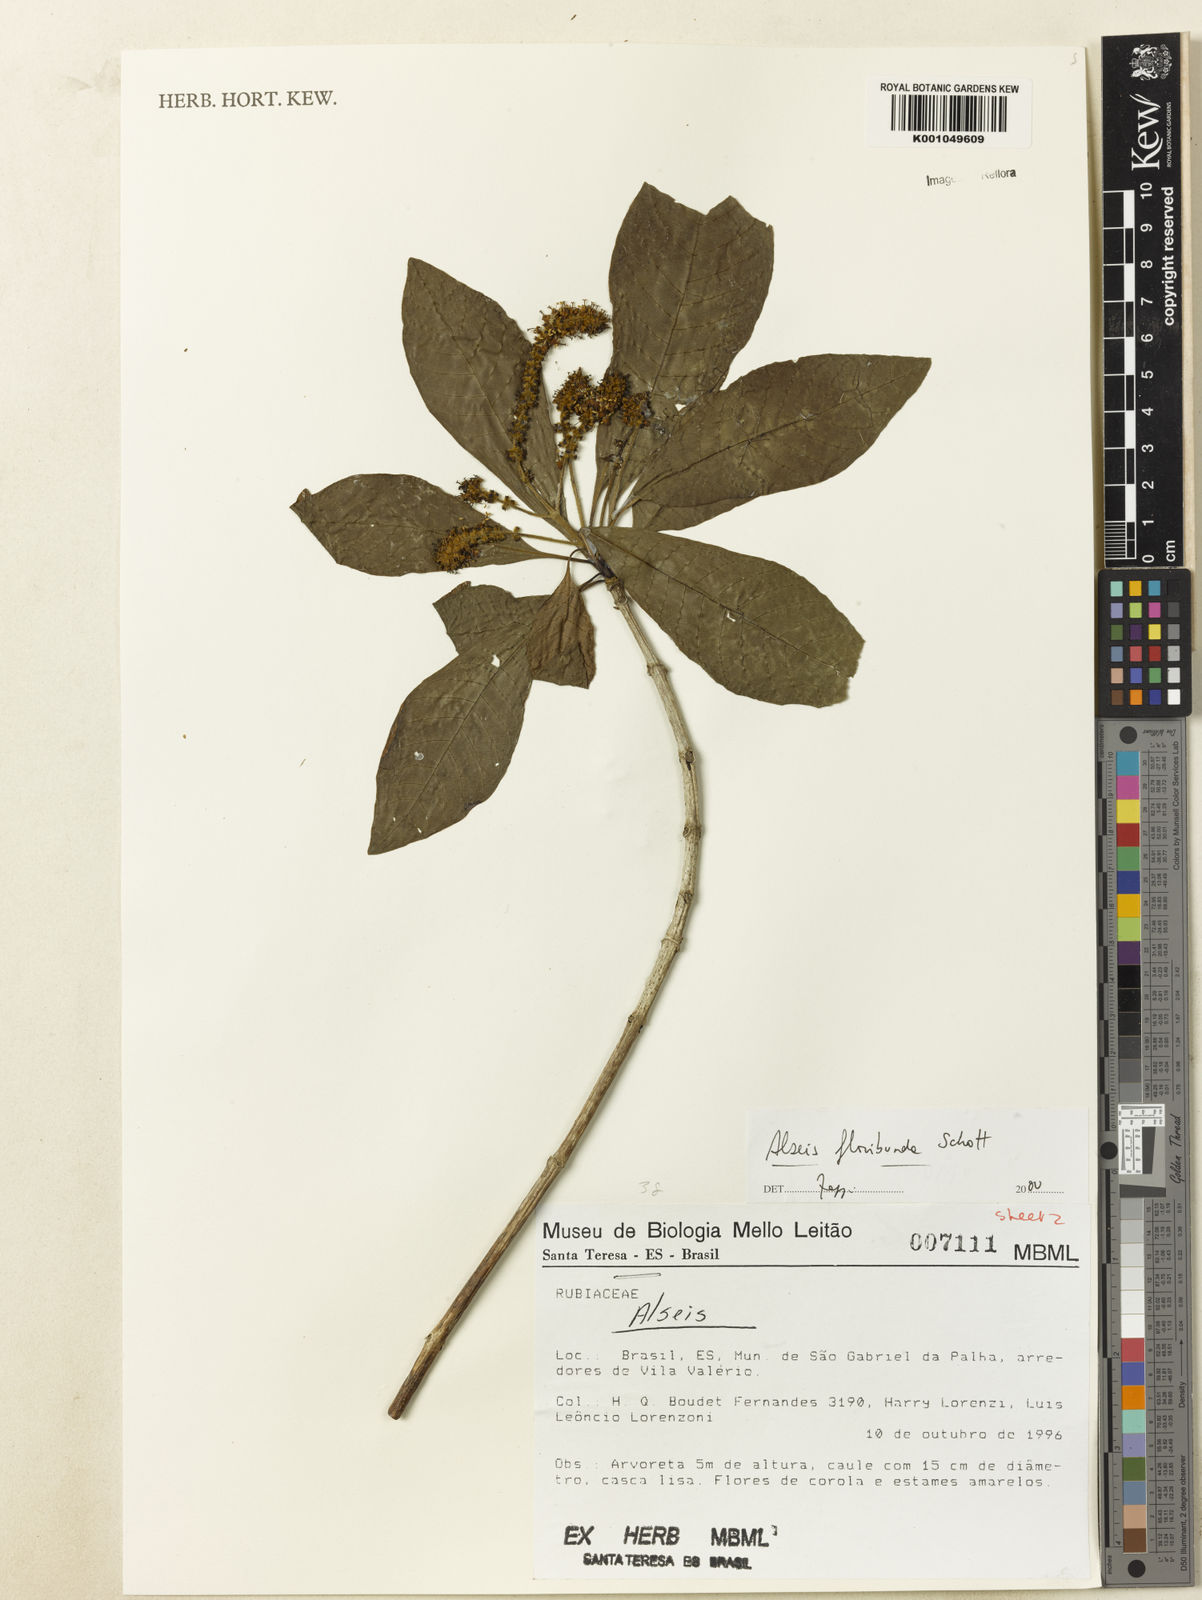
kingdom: Plantae
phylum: Tracheophyta
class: Magnoliopsida
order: Gentianales
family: Rubiaceae
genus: Alseis
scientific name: Alseis floribunda
